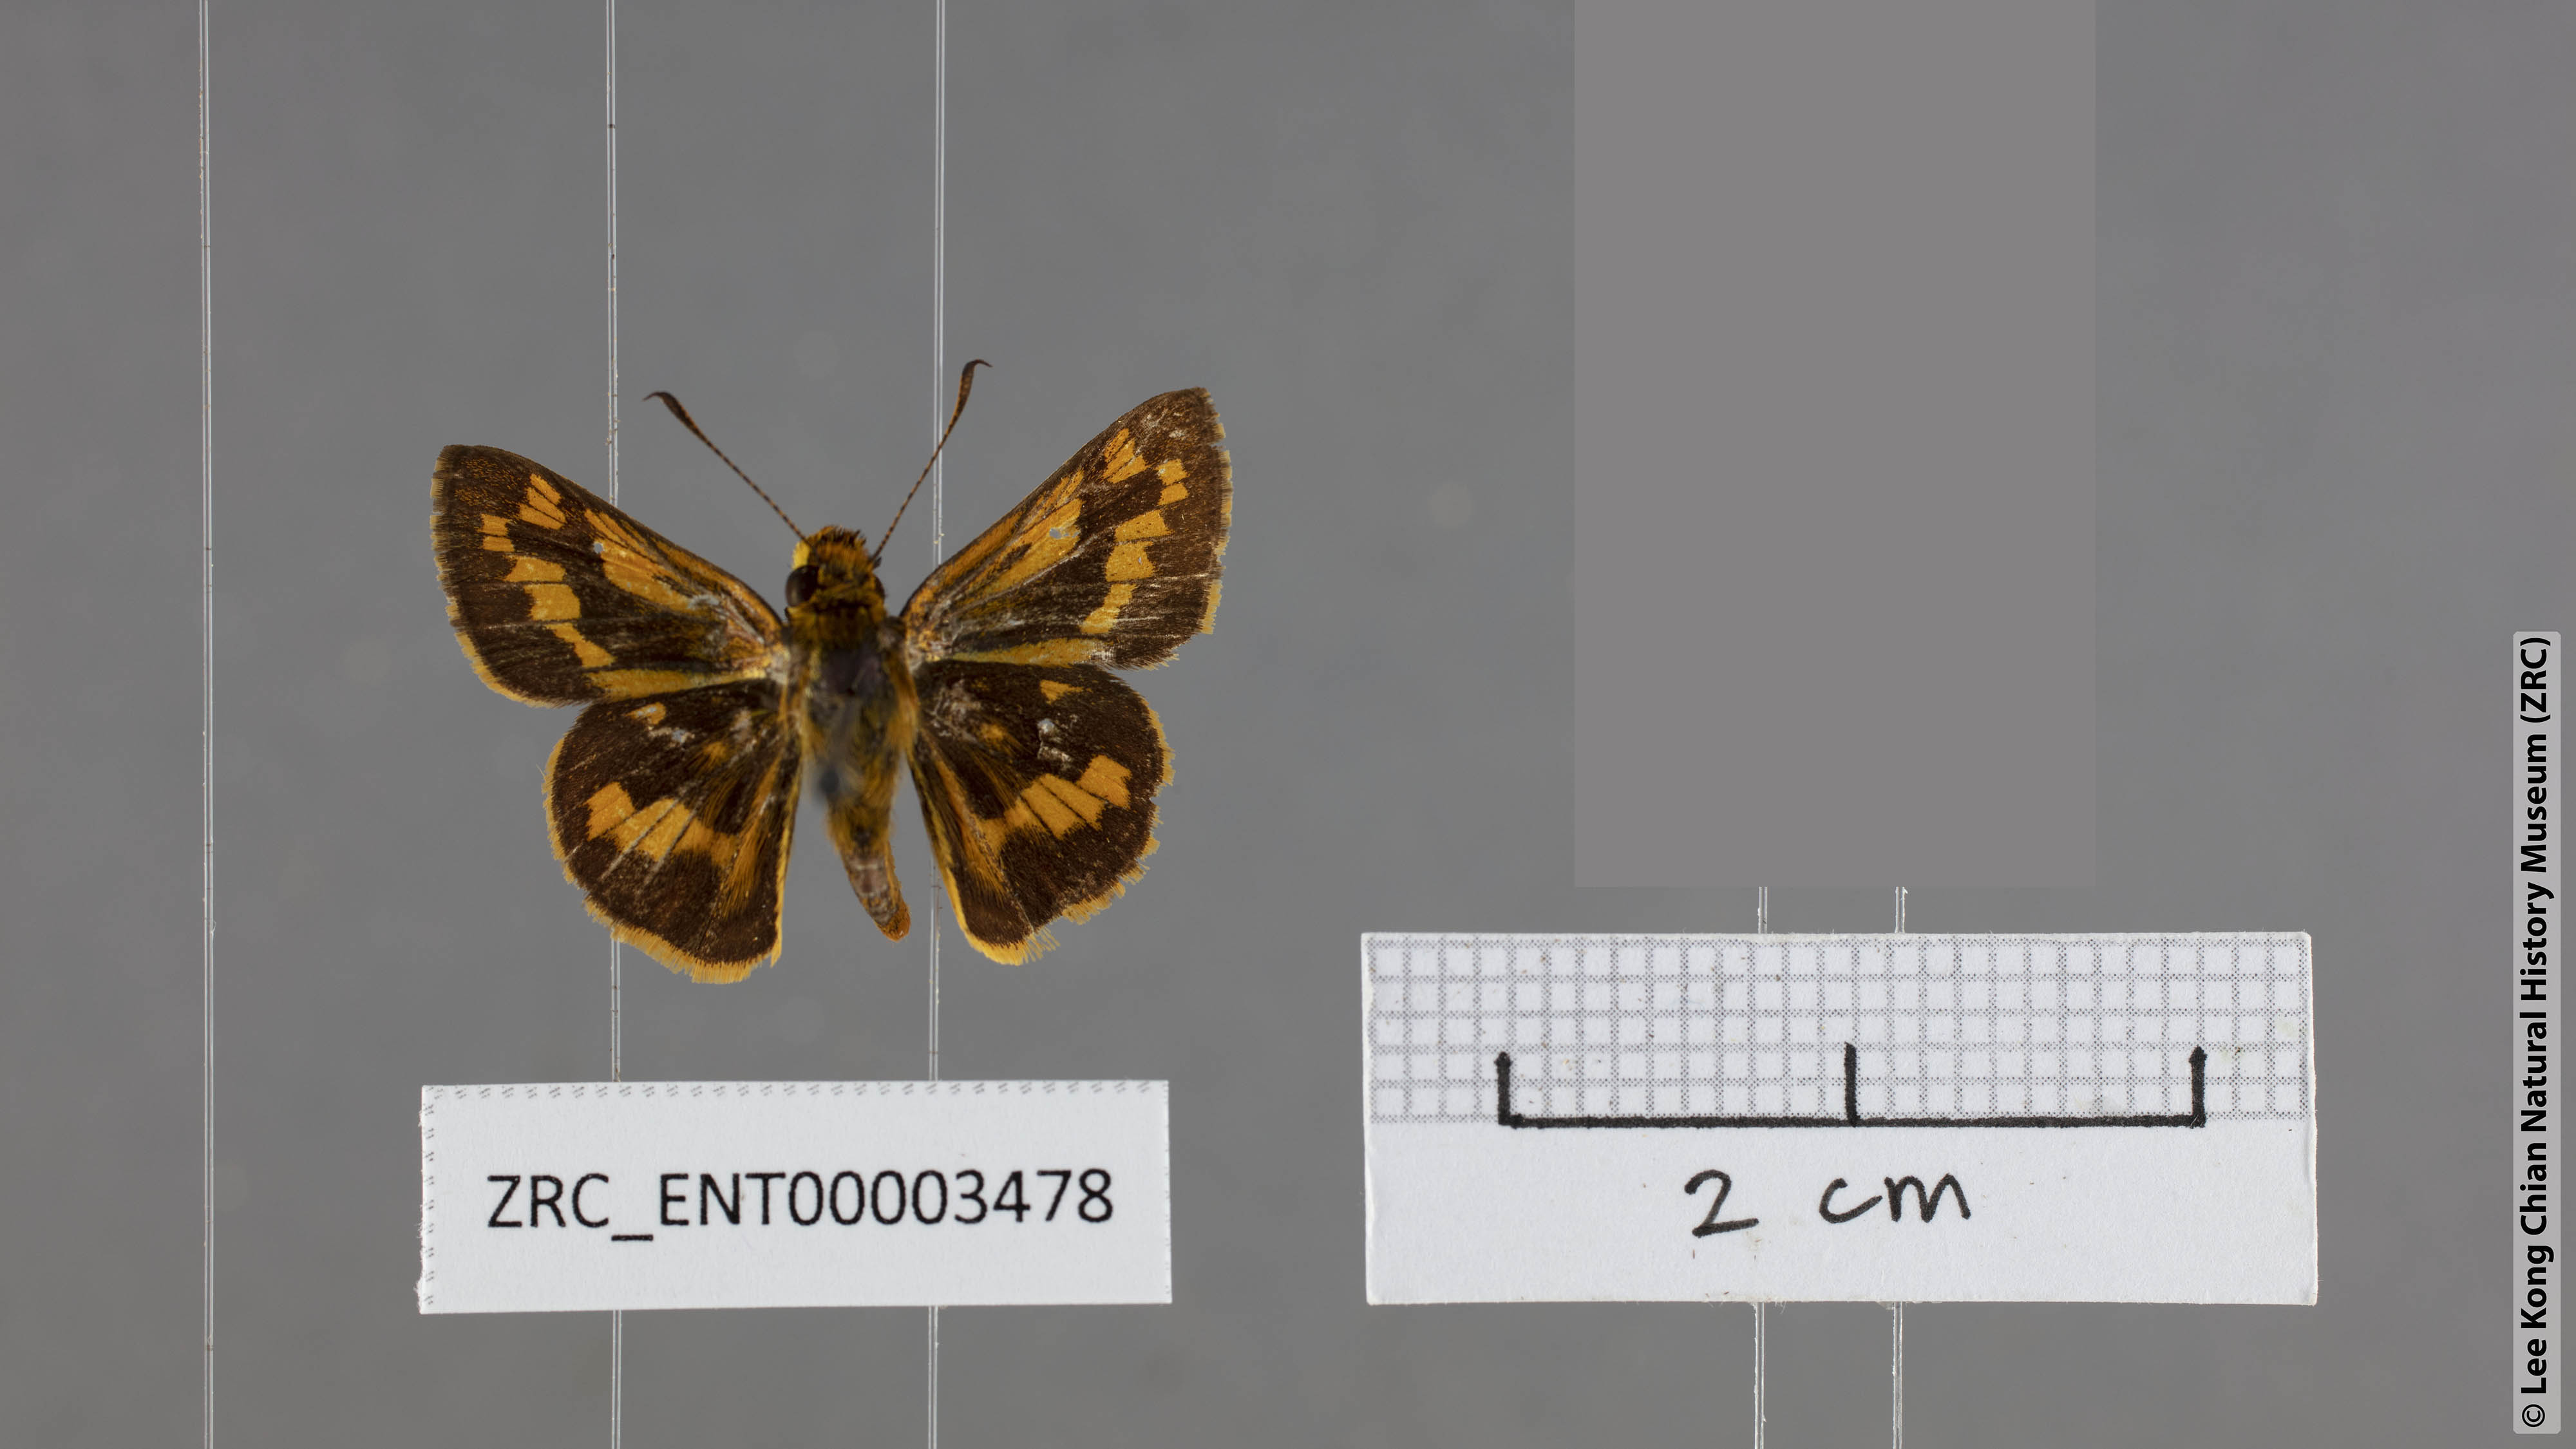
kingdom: Animalia
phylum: Arthropoda
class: Insecta
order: Lepidoptera
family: Hesperiidae
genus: Potanthus
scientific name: Potanthus mingo
